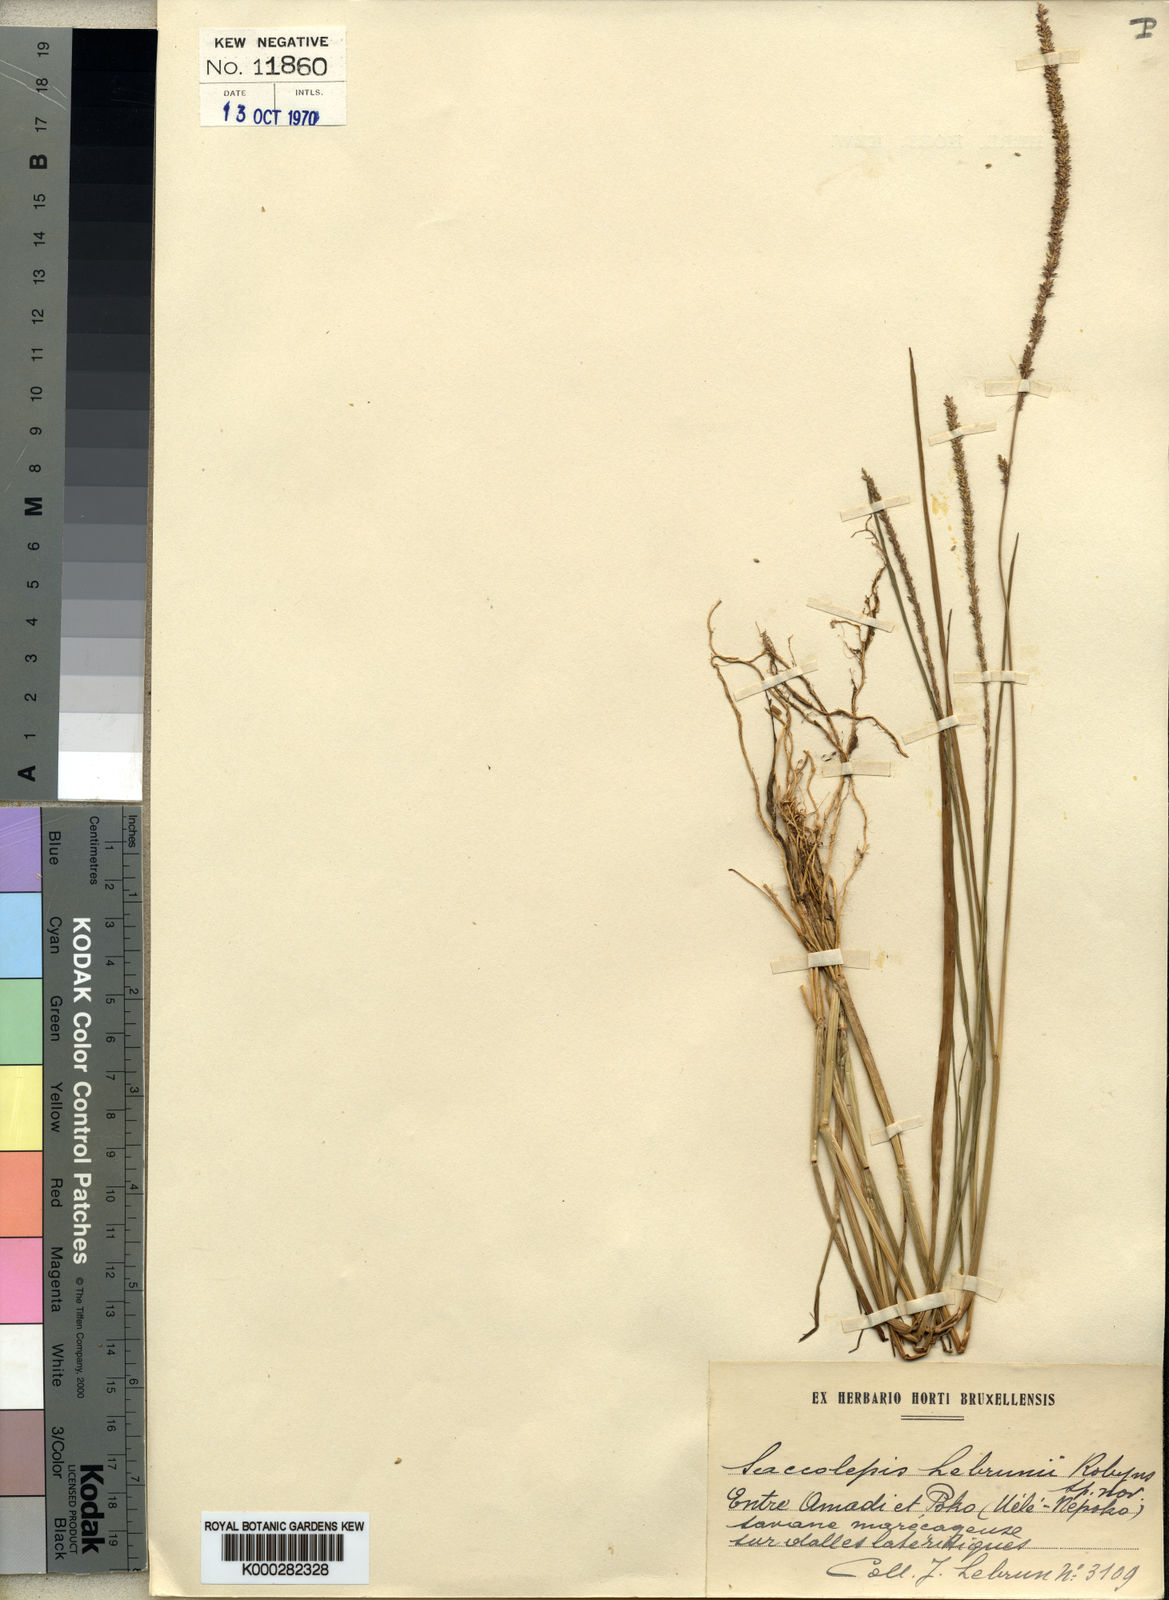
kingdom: Plantae
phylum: Tracheophyta
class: Liliopsida
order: Poales
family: Poaceae
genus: Sacciolepis
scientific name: Sacciolepis myosuroides
